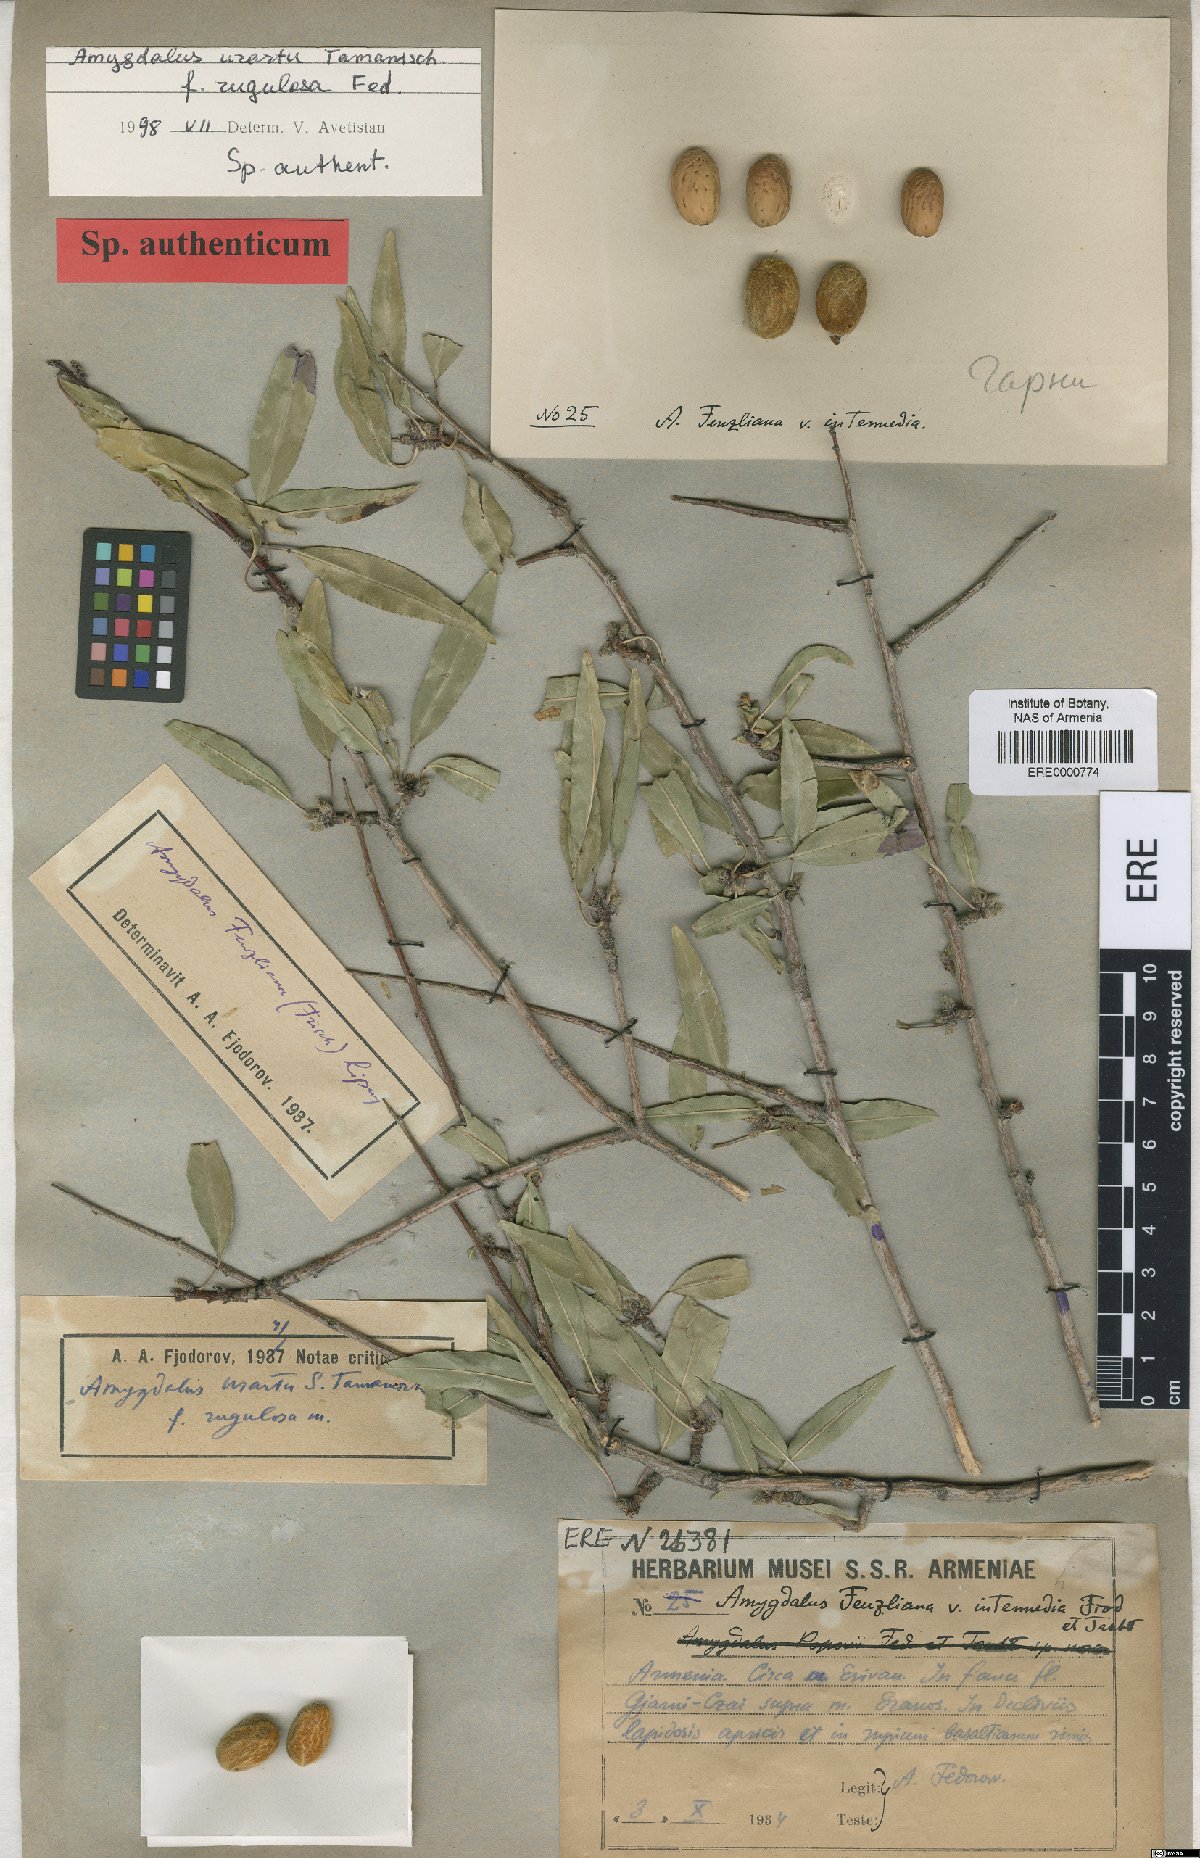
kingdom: Plantae
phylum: Tracheophyta
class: Magnoliopsida
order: Rosales
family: Rosaceae
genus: Prunus
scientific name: Prunus urartu
